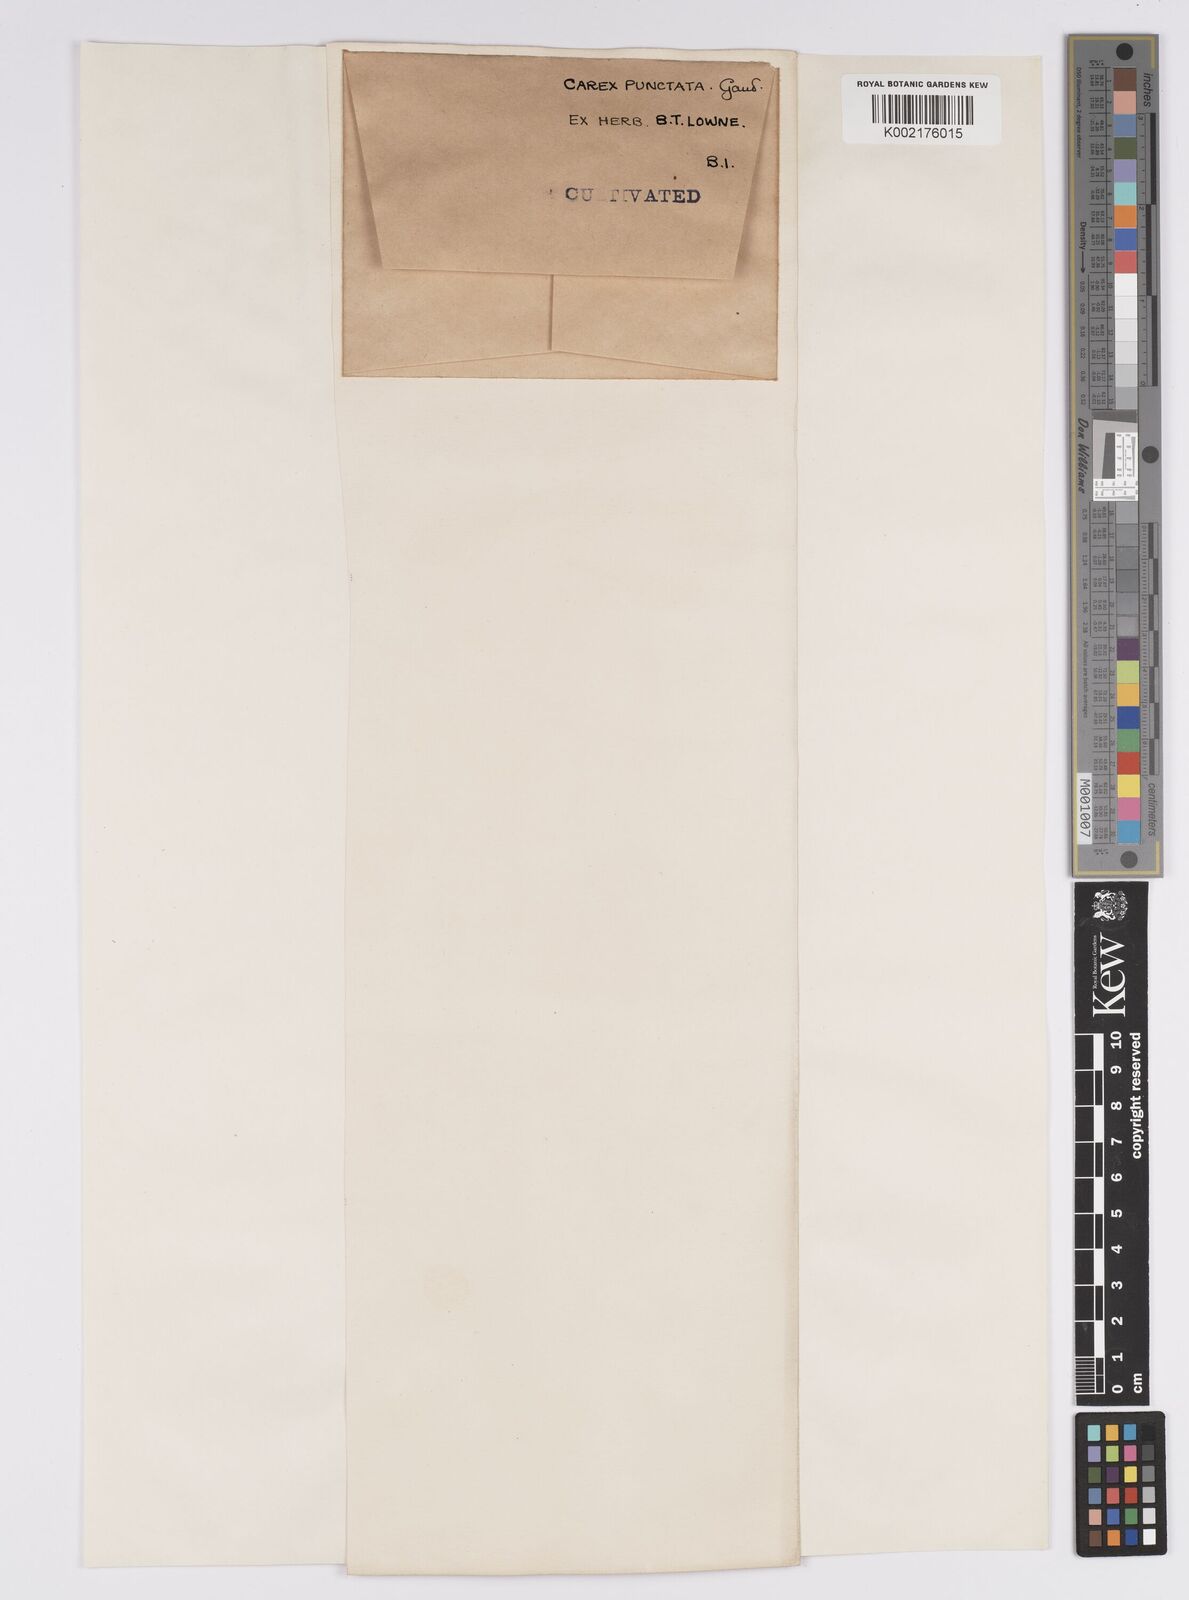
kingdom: Plantae
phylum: Tracheophyta
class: Liliopsida
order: Poales
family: Cyperaceae
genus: Carex
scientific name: Carex punctata
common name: Dotted sedge
